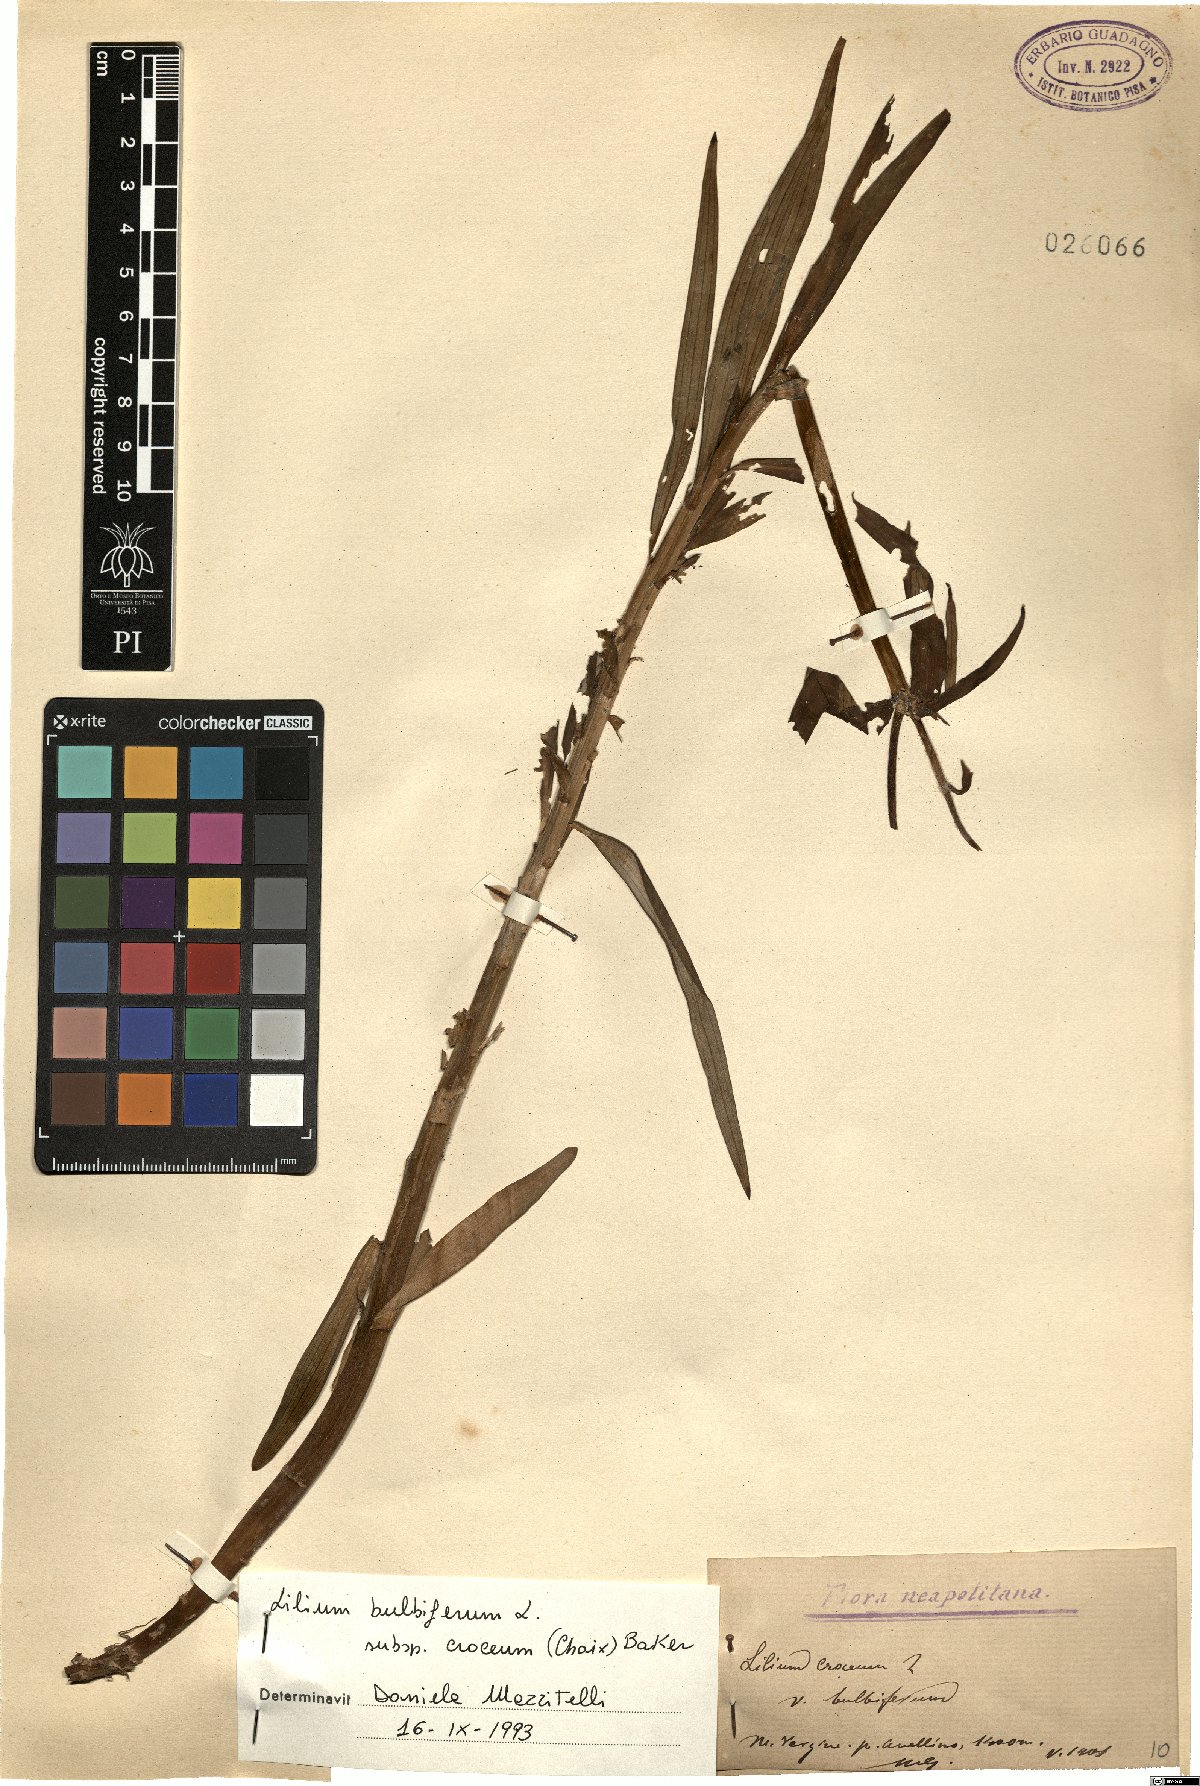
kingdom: Plantae
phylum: Tracheophyta
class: Liliopsida
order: Liliales
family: Liliaceae
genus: Lilium
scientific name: Lilium bulbiferum
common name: Orange lily
